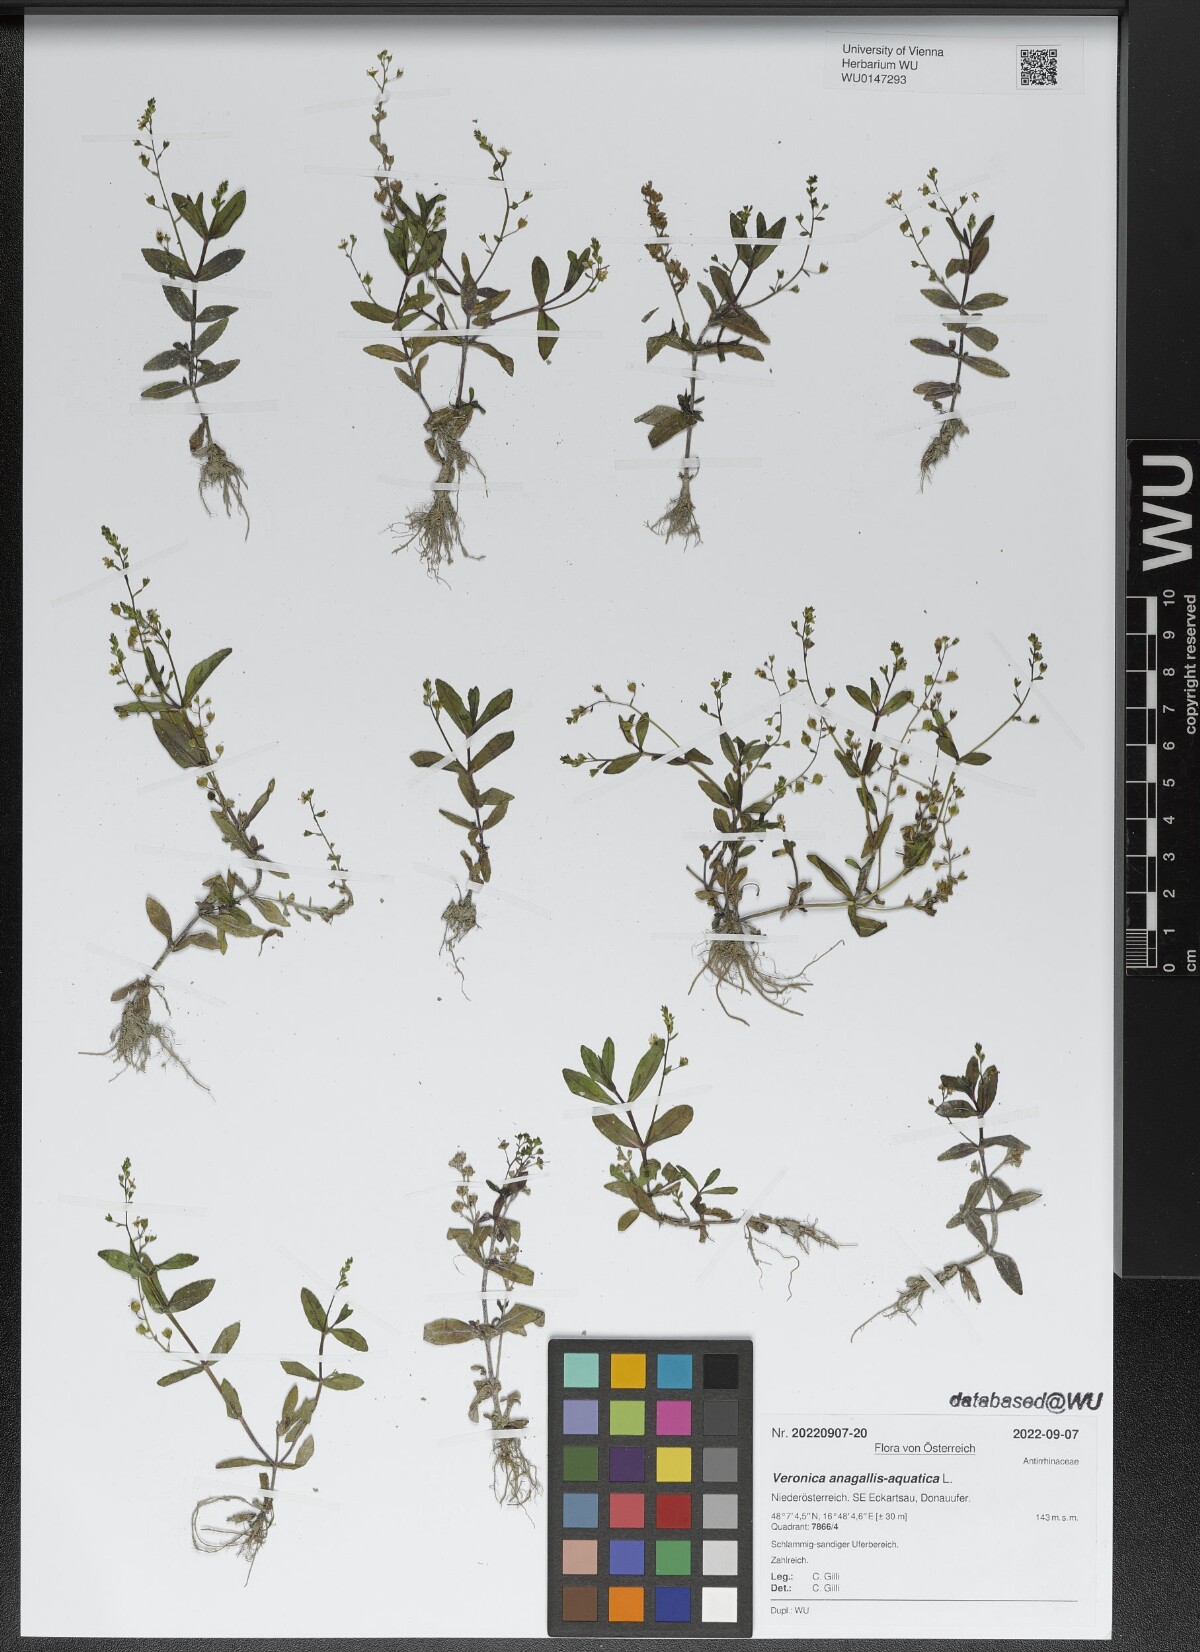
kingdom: Plantae
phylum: Tracheophyta
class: Magnoliopsida
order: Lamiales
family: Plantaginaceae
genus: Veronica
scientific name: Veronica anagallis-aquatica
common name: Water speedwell
